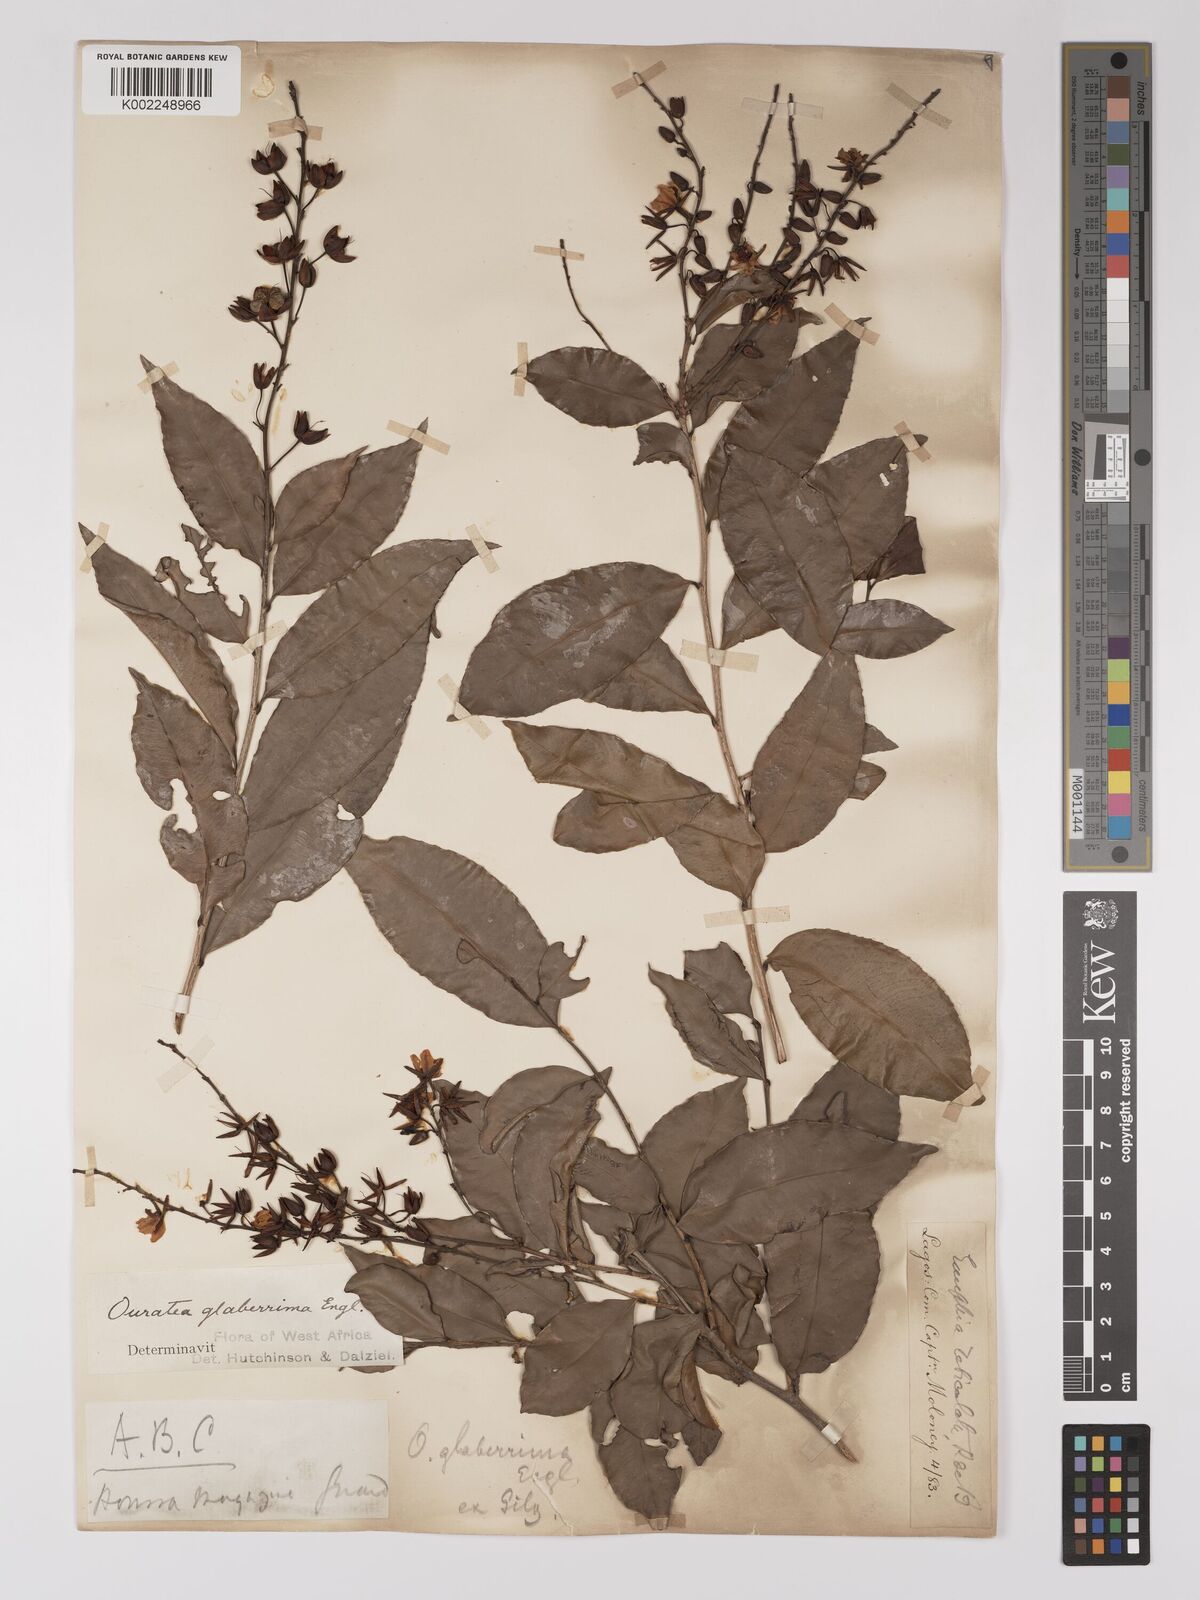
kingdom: Plantae
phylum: Tracheophyta
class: Magnoliopsida
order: Malpighiales
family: Ochnaceae
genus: Campylospermum
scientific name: Campylospermum glaberrimum
